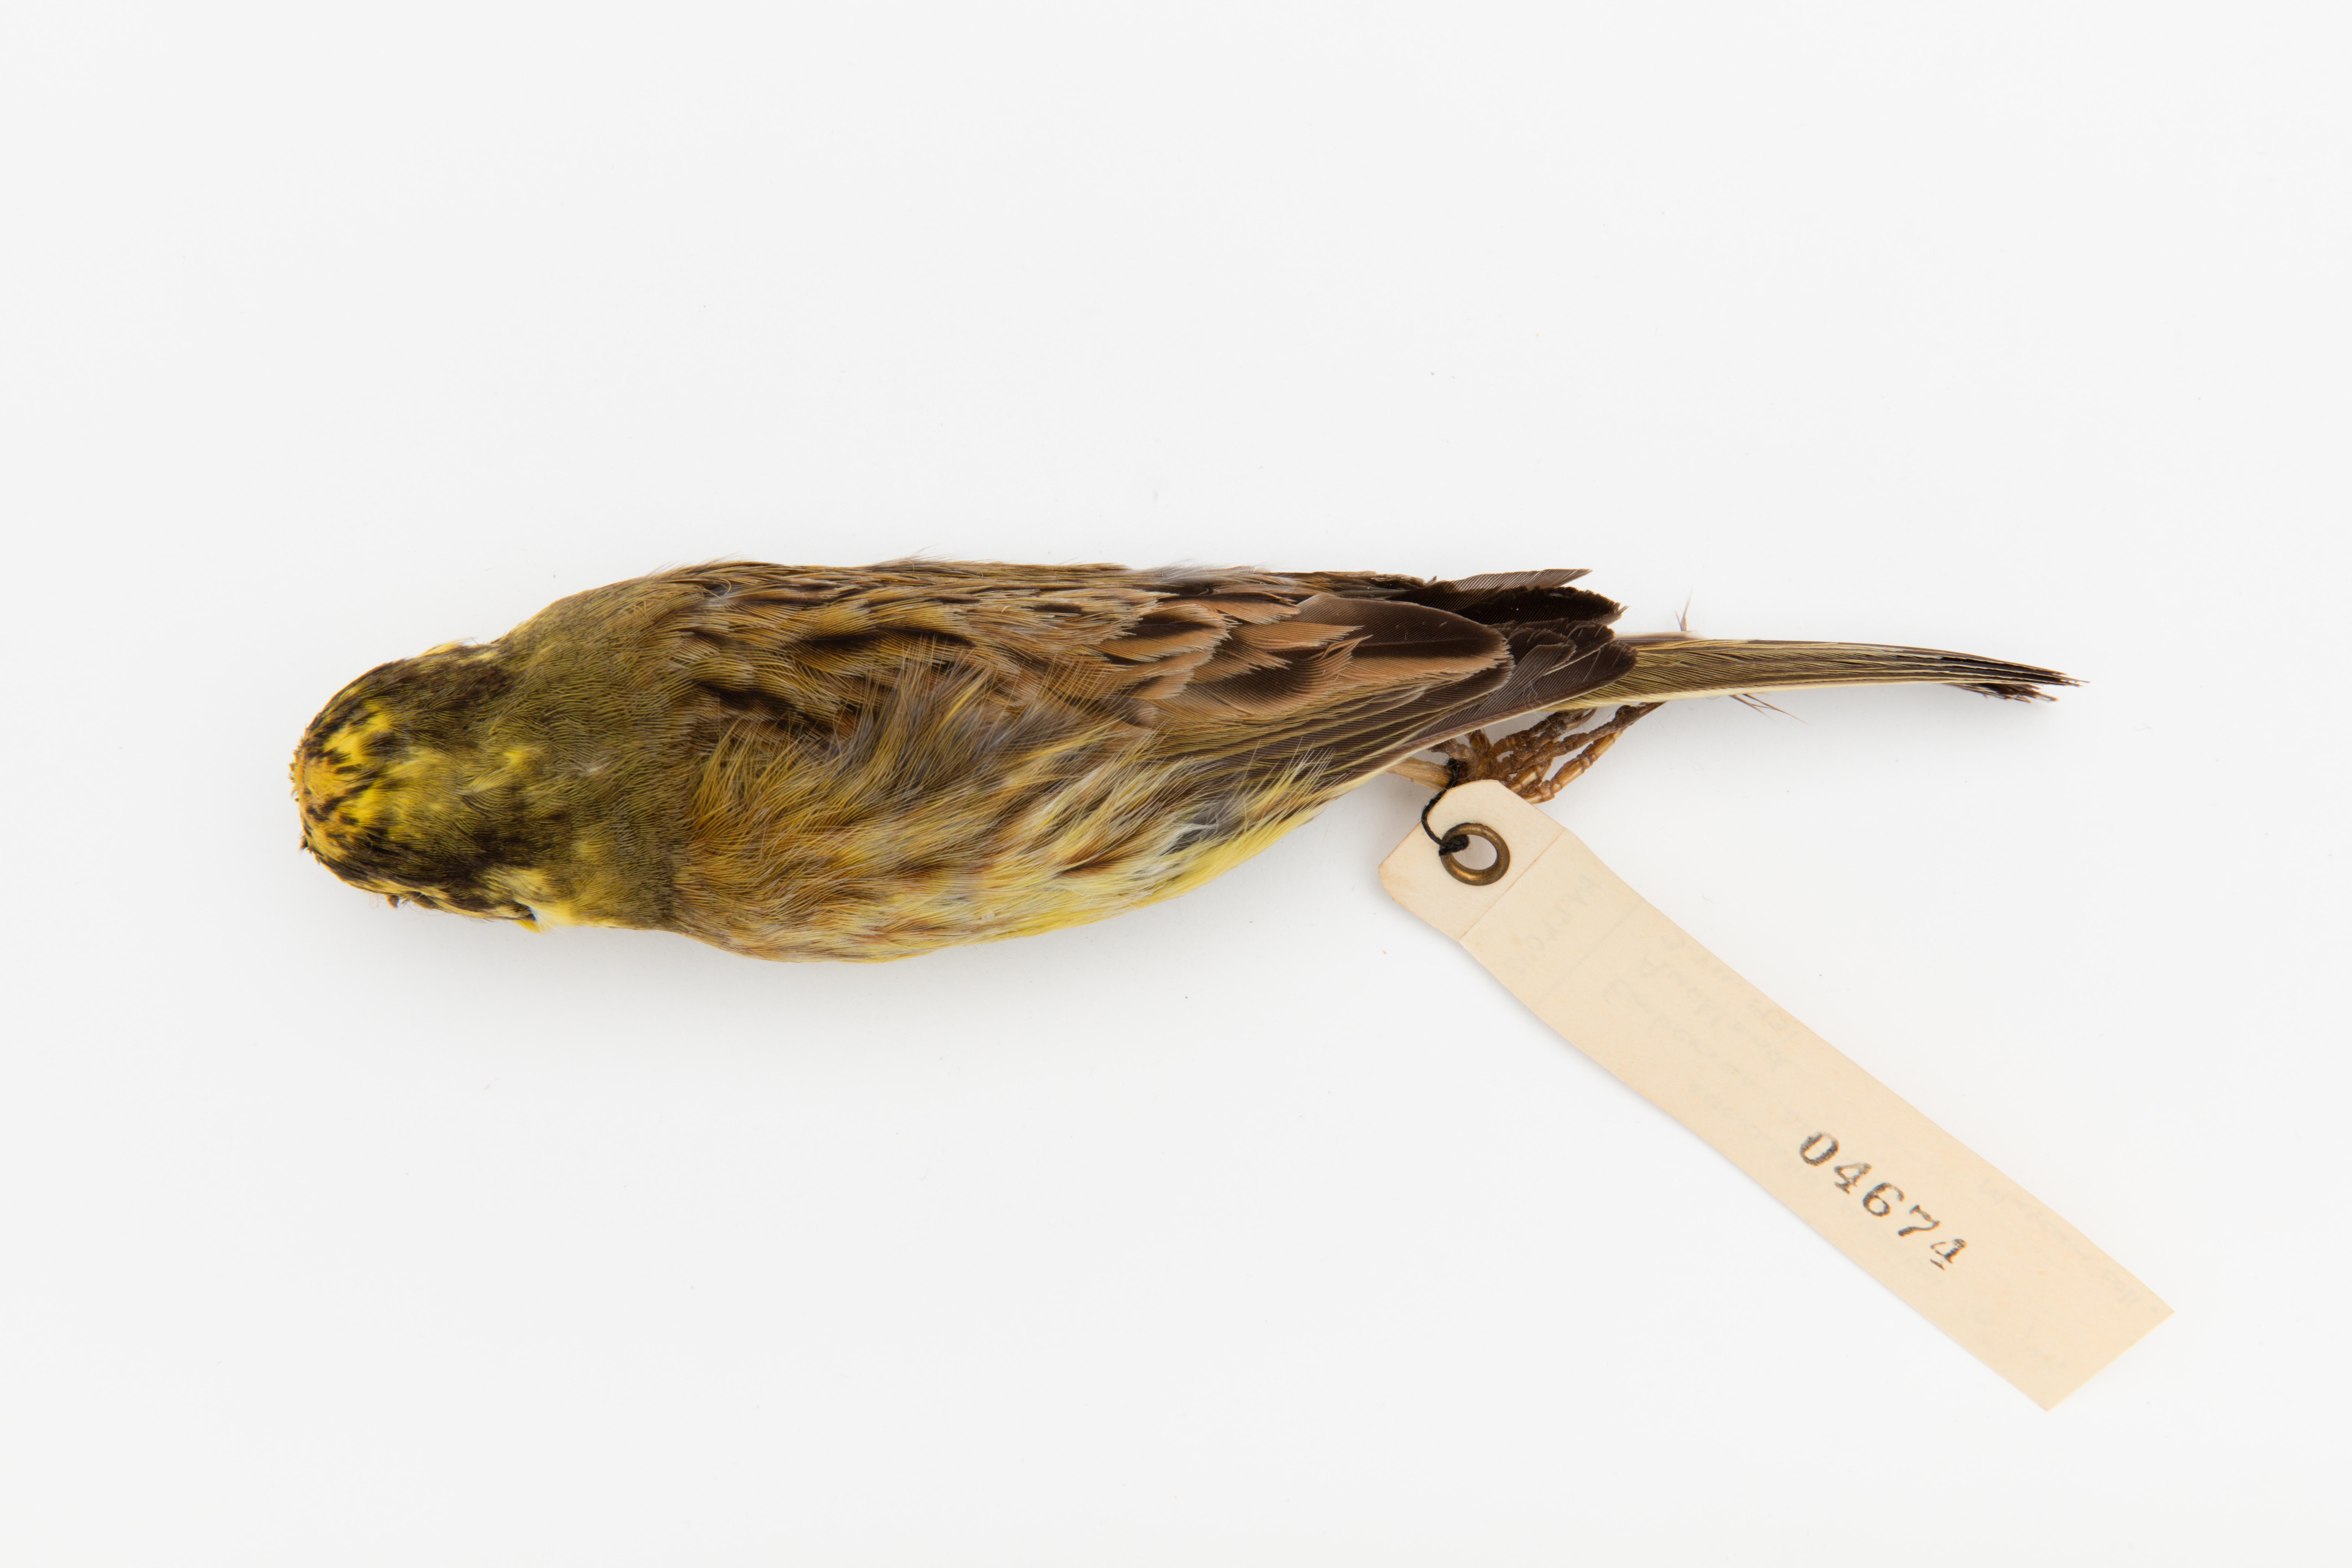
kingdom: Animalia
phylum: Chordata
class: Aves
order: Passeriformes
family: Emberizidae
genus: Emberiza
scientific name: Emberiza citrinella
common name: Yellowhammer
